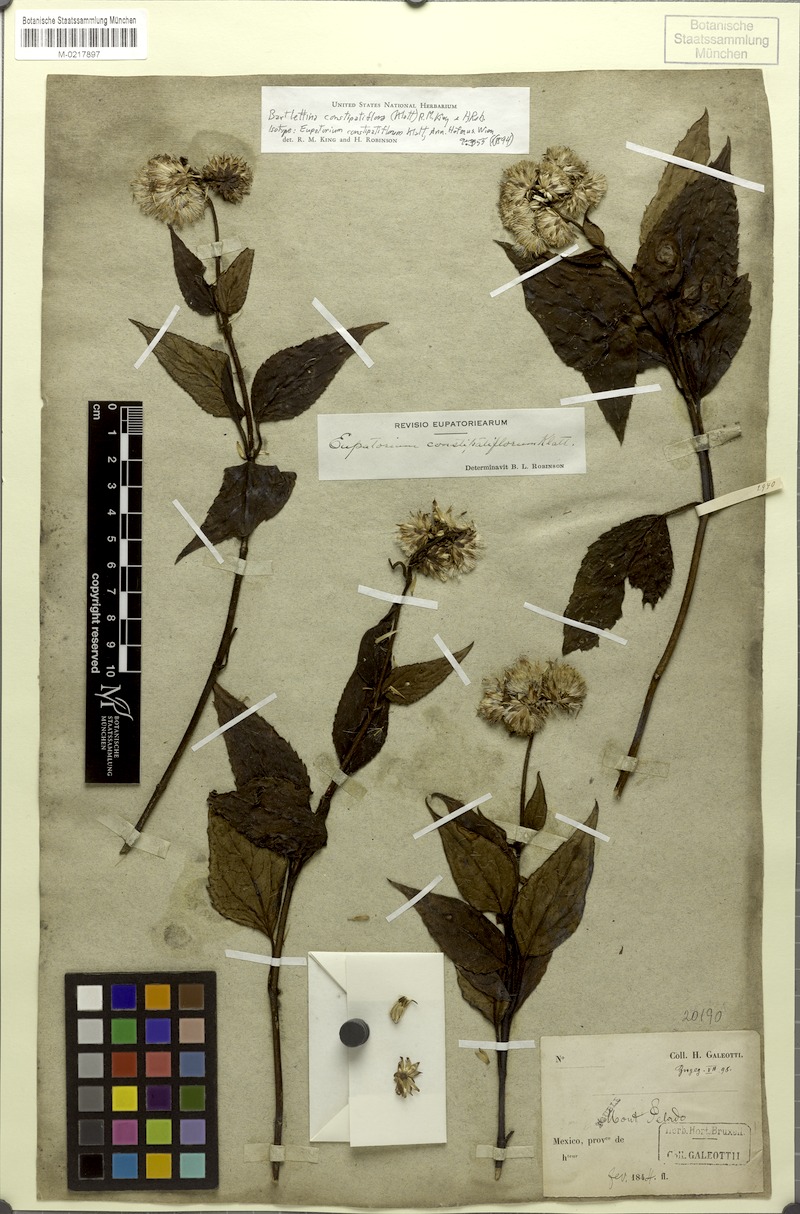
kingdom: Plantae
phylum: Tracheophyta
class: Magnoliopsida
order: Asterales
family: Asteraceae
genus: Bartlettina
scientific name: Bartlettina constipatiflora
